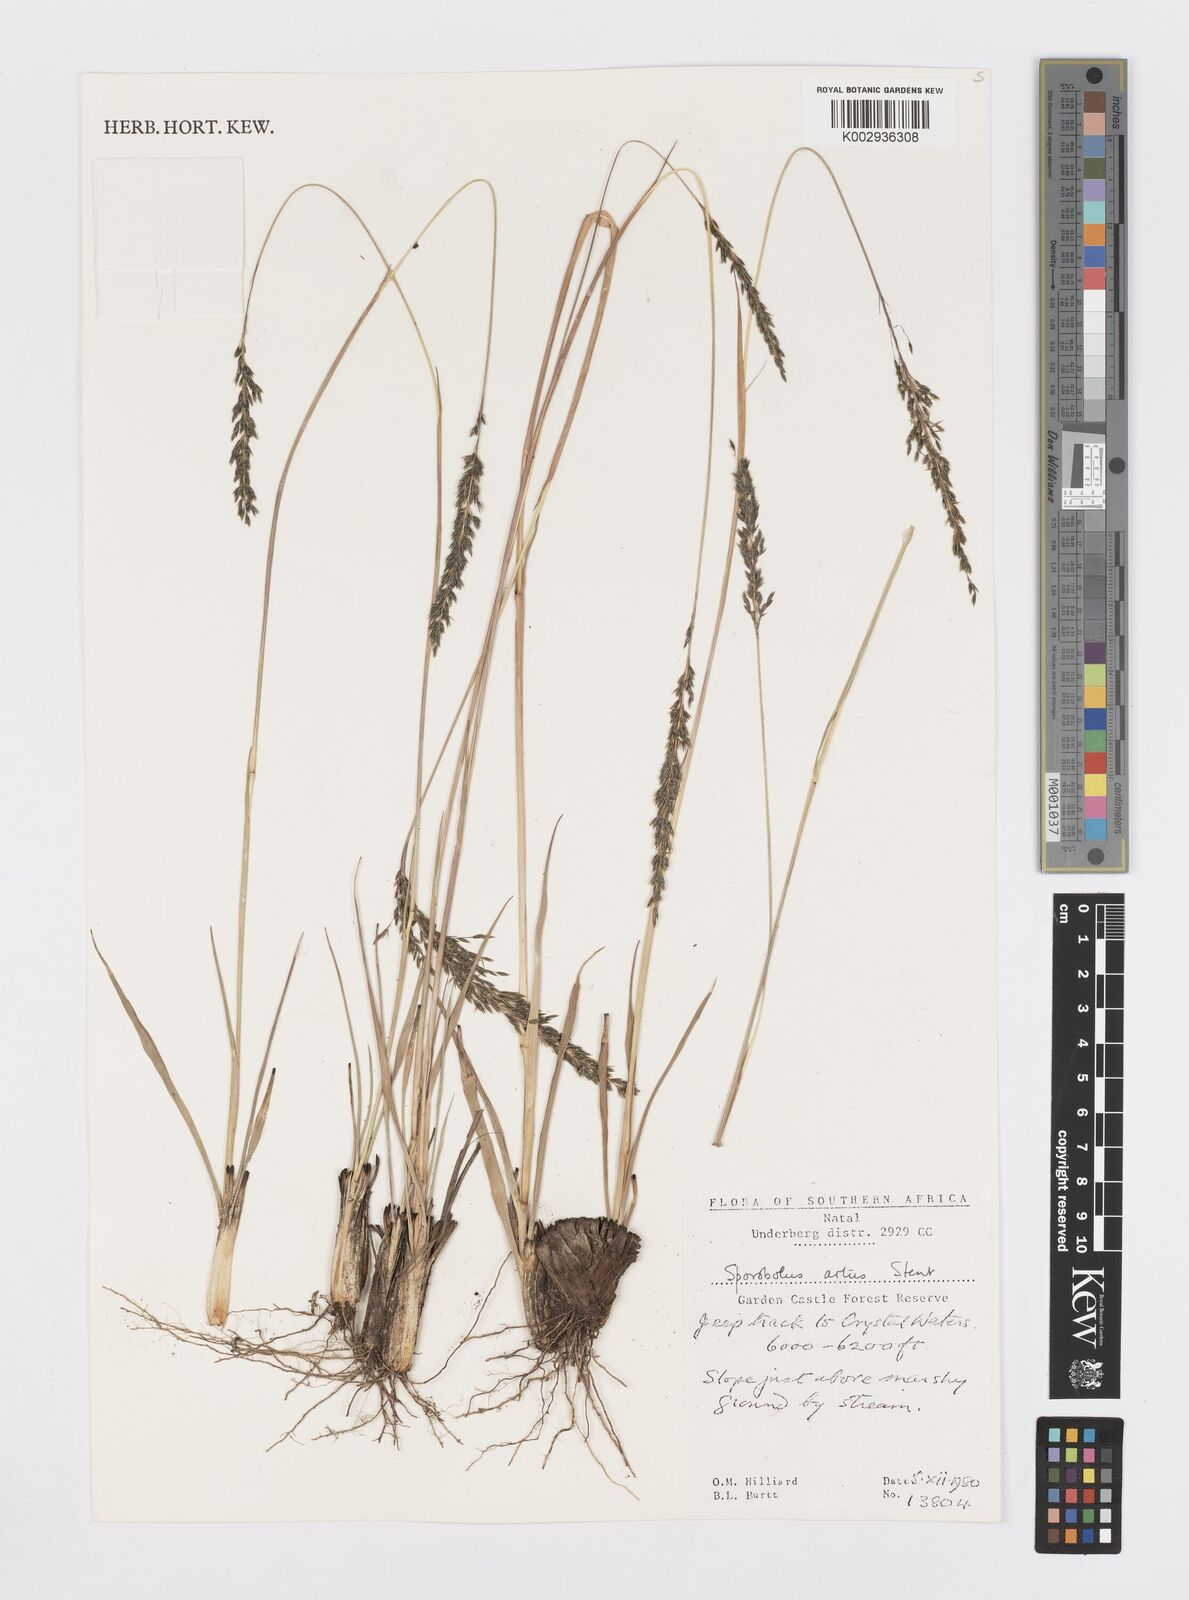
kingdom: Plantae
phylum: Tracheophyta
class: Liliopsida
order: Poales
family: Poaceae
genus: Sporobolus
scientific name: Sporobolus subulatus
